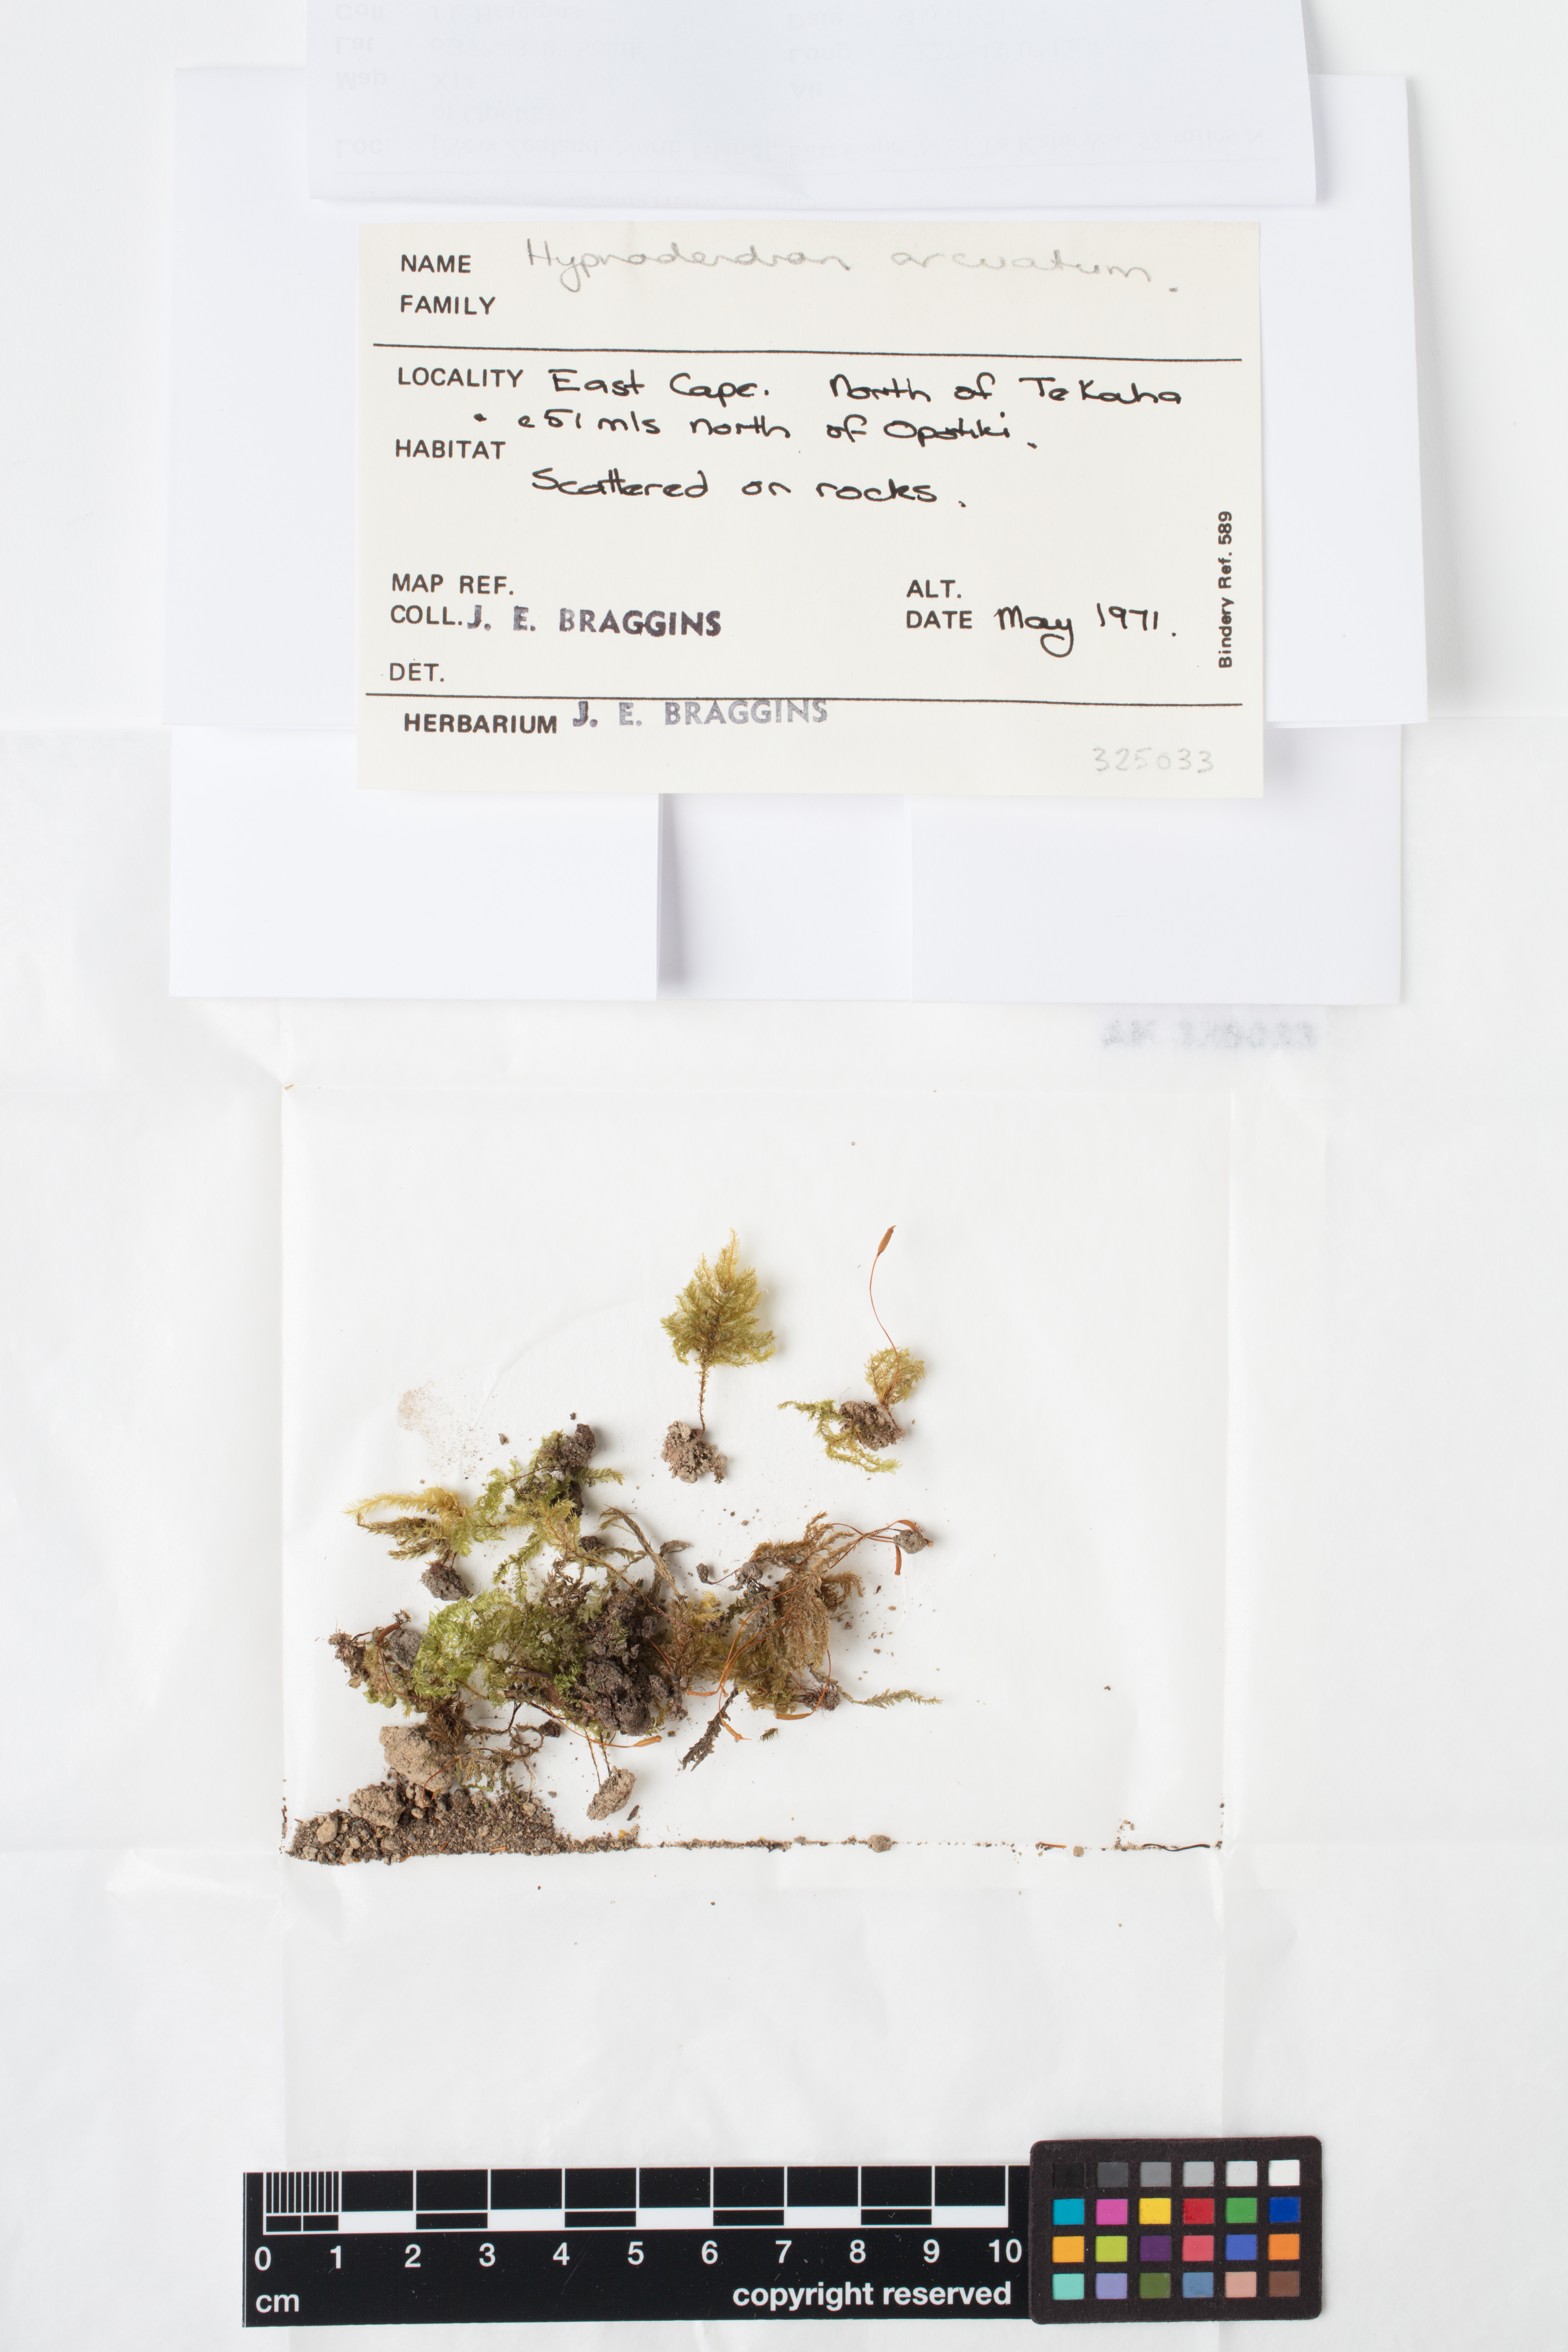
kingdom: Plantae
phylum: Bryophyta
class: Bryopsida
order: Hypnodendrales
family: Spiridentaceae
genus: Hypnodendron
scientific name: Hypnodendron arcuatum
